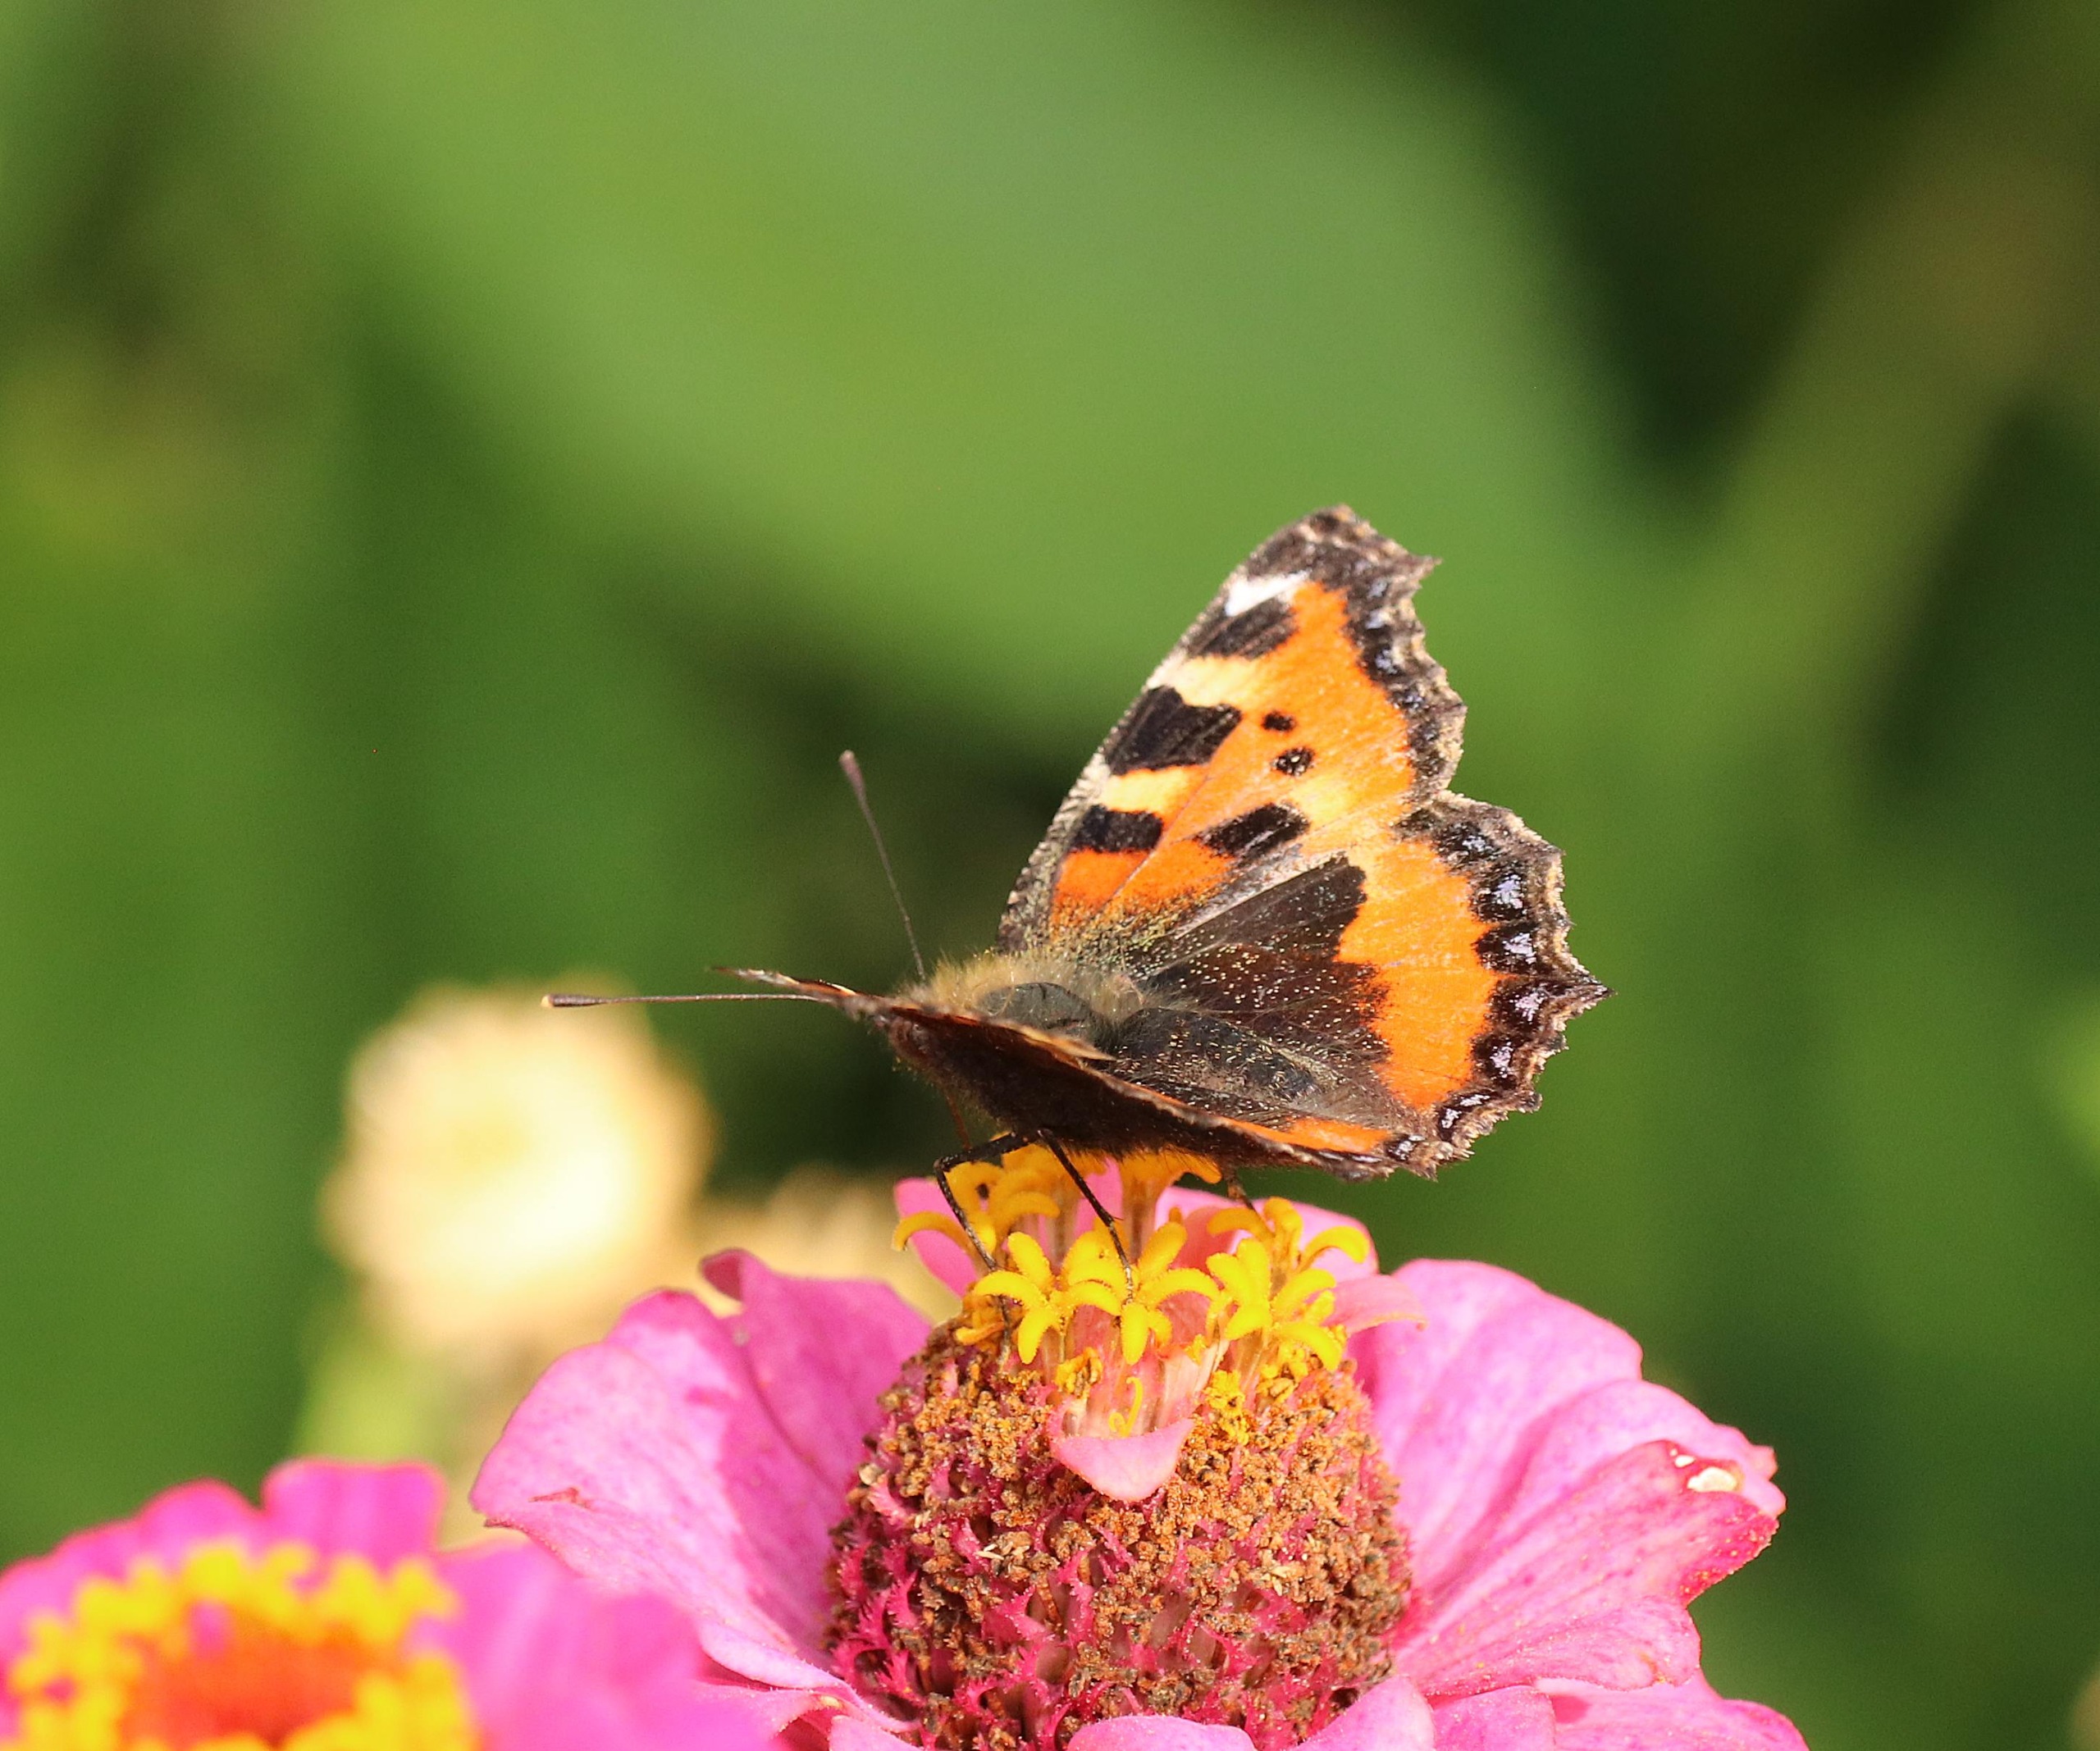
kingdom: Animalia
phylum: Arthropoda
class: Insecta
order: Lepidoptera
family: Nymphalidae
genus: Aglais
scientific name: Aglais urticae
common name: Nældens takvinge
